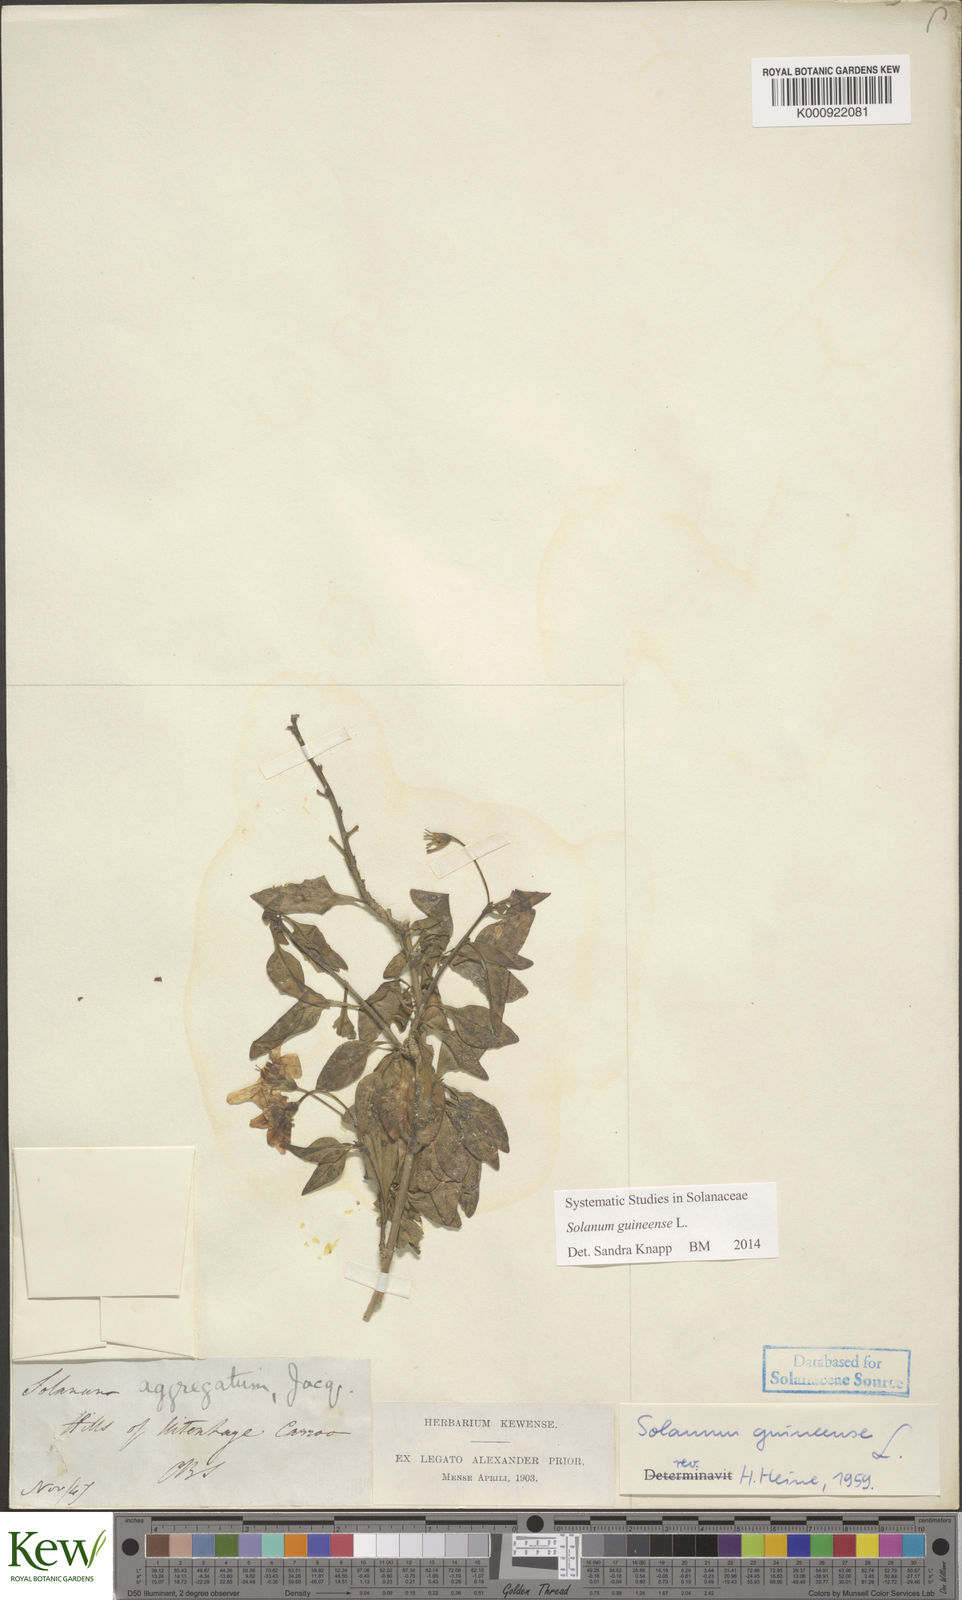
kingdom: Plantae
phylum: Tracheophyta
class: Magnoliopsida
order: Solanales
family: Solanaceae
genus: Solanum
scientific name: Solanum guineense
